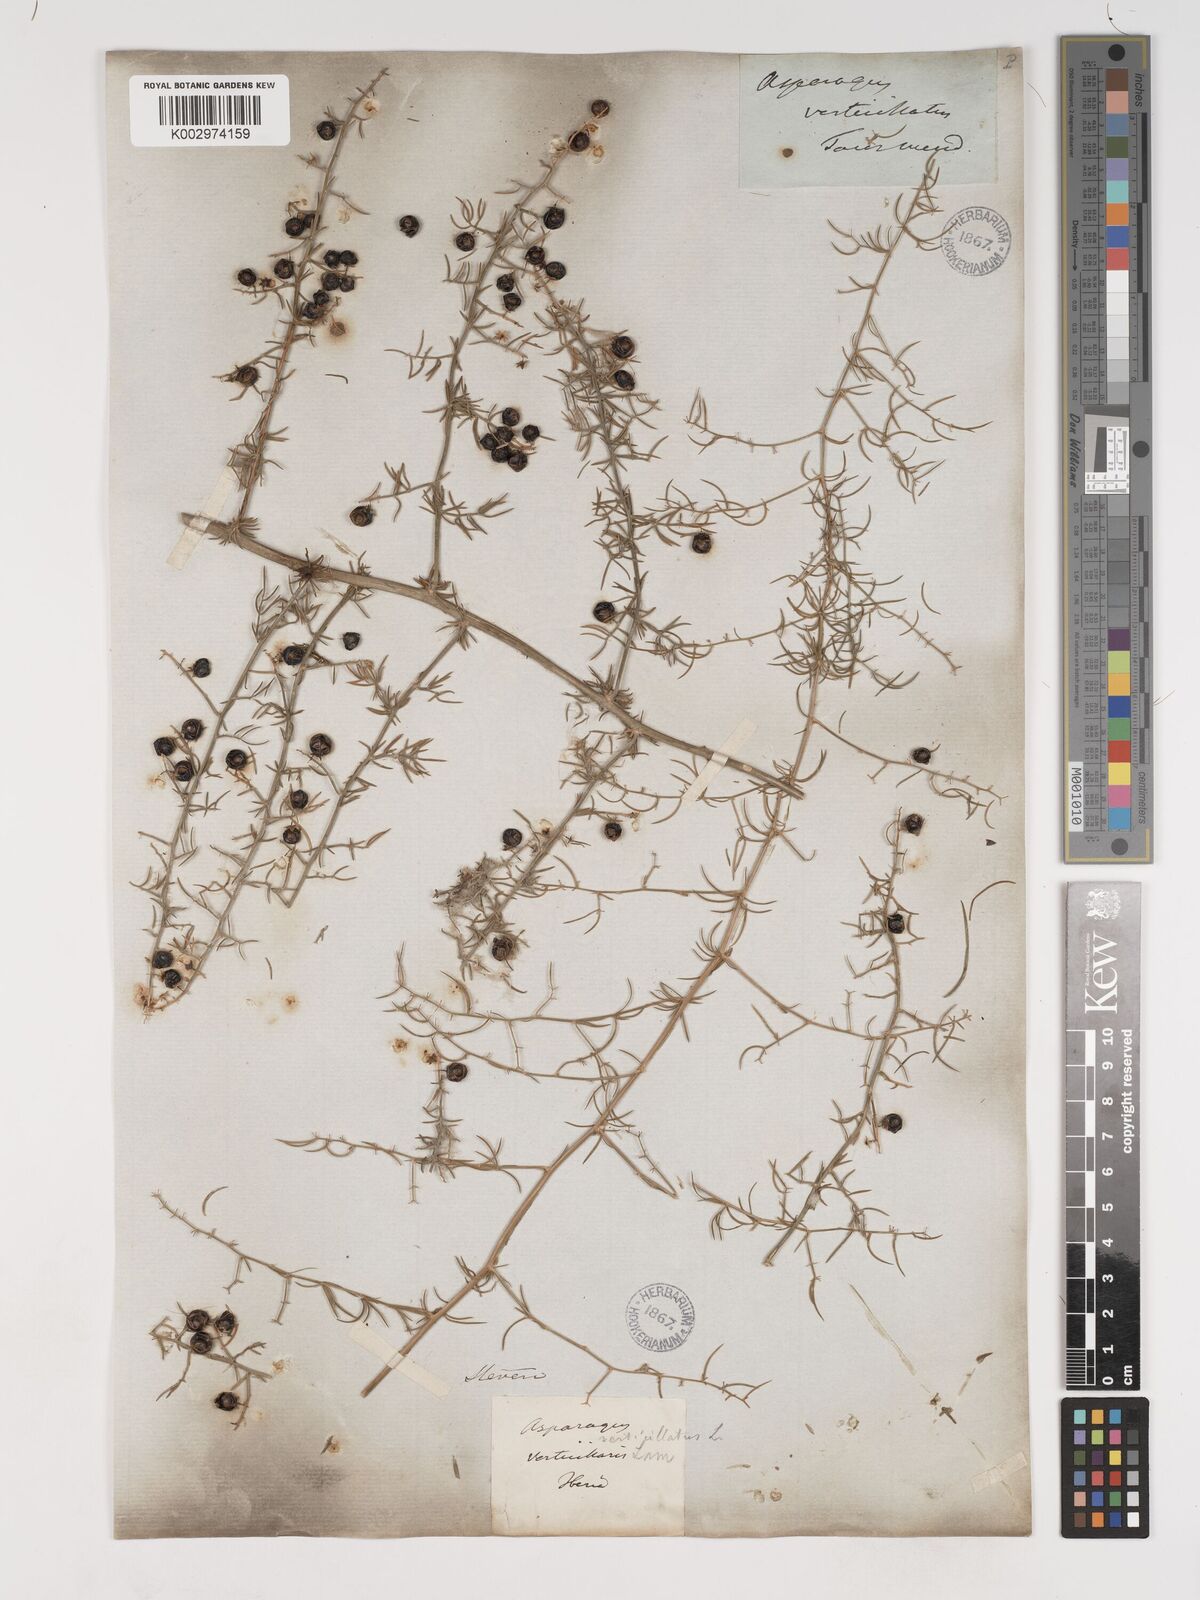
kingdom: Plantae
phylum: Tracheophyta
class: Liliopsida
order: Asparagales
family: Asparagaceae
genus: Asparagus
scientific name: Asparagus verticillatus
